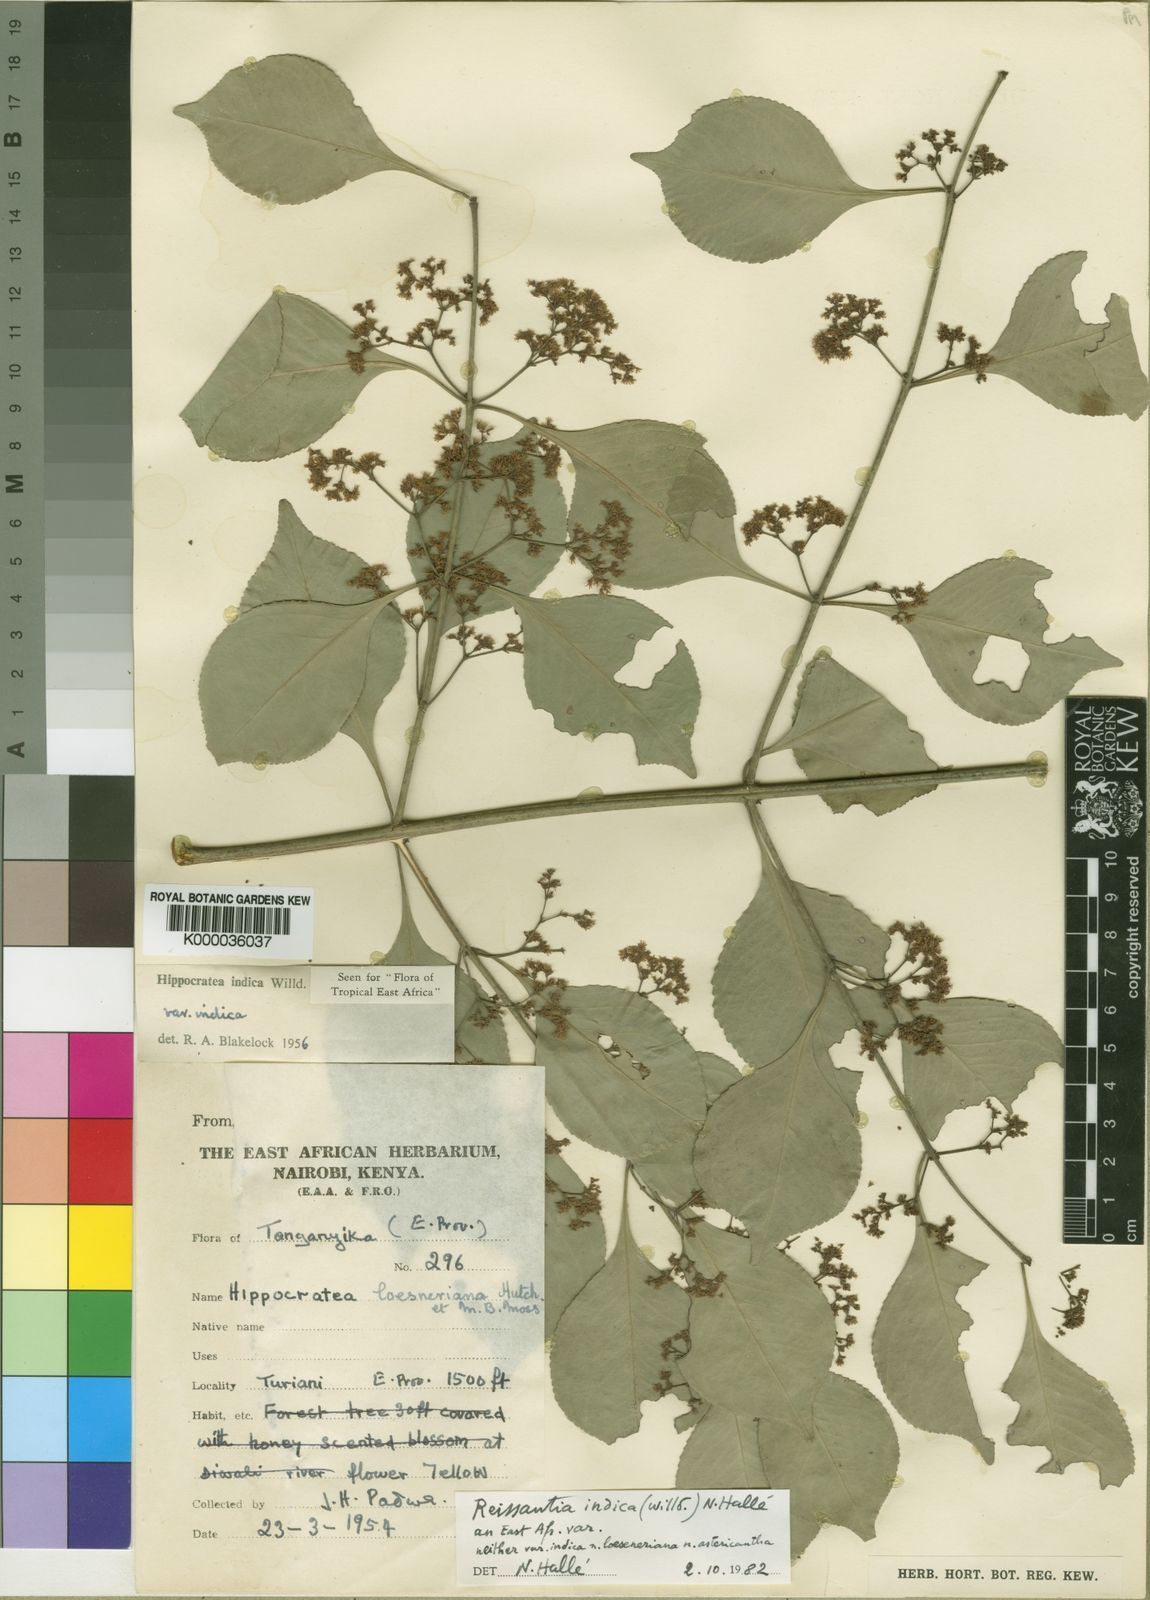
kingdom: Plantae
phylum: Tracheophyta
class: Magnoliopsida
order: Celastrales
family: Celastraceae
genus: Reissantia
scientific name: Reissantia
